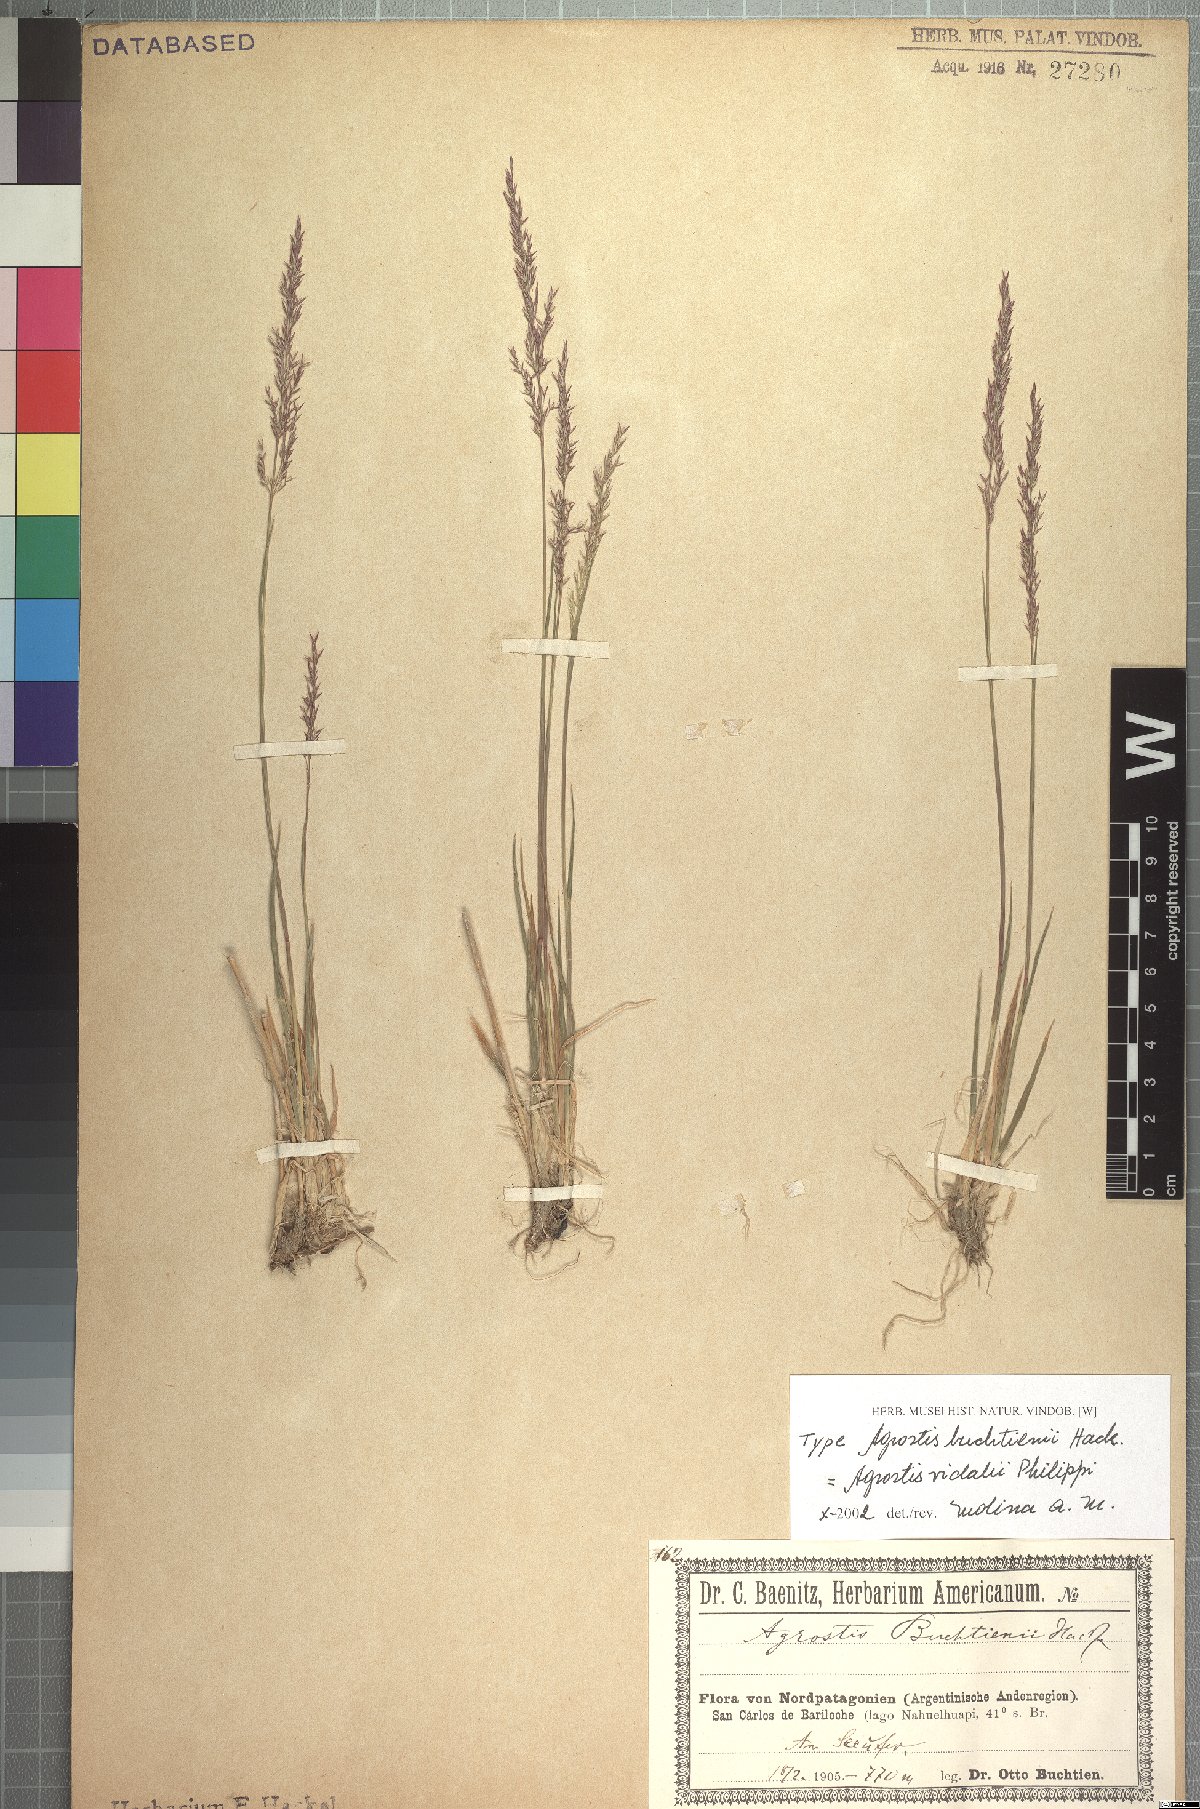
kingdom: Plantae
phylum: Tracheophyta
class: Liliopsida
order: Poales
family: Poaceae
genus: Agrostis
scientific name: Agrostis vidalii
